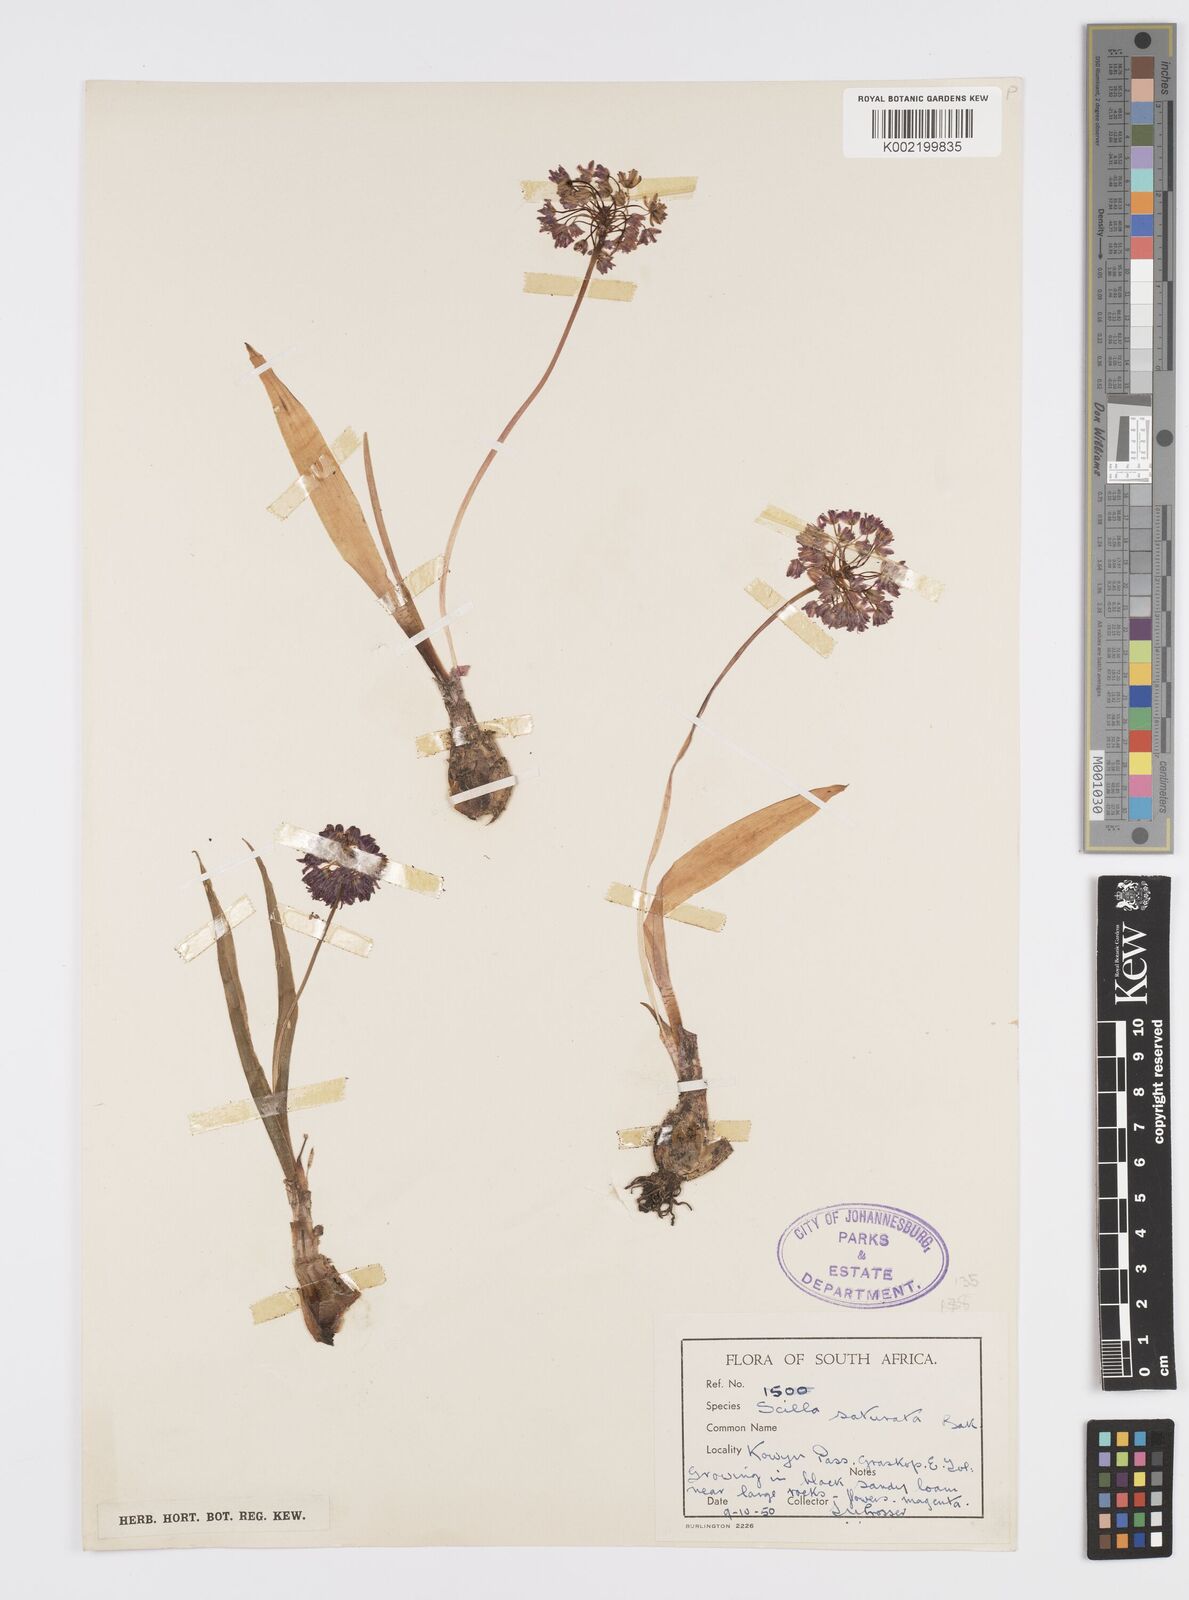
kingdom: Plantae
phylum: Tracheophyta
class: Liliopsida
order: Asparagales
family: Asparagaceae
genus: Ledebouria
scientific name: Ledebouria cooperi
